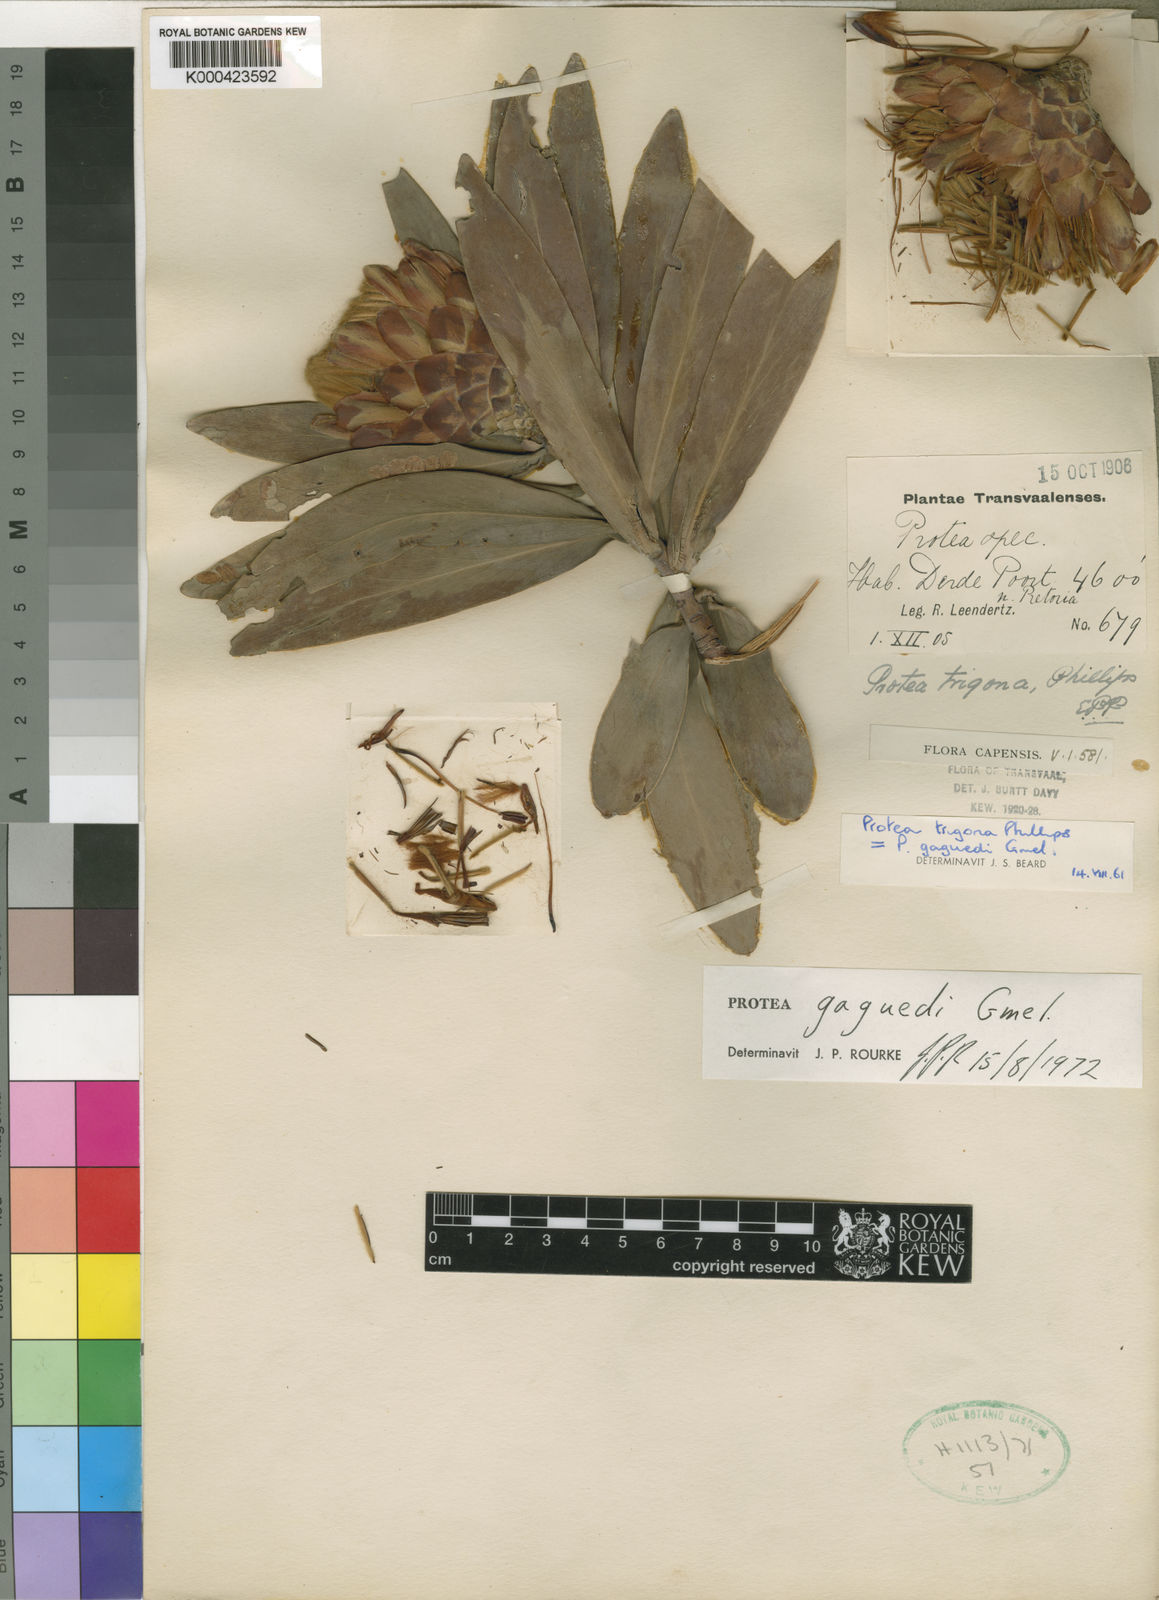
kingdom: Plantae
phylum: Tracheophyta
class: Magnoliopsida
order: Proteales
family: Proteaceae
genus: Protea
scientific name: Protea gaguedi
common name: African protea
